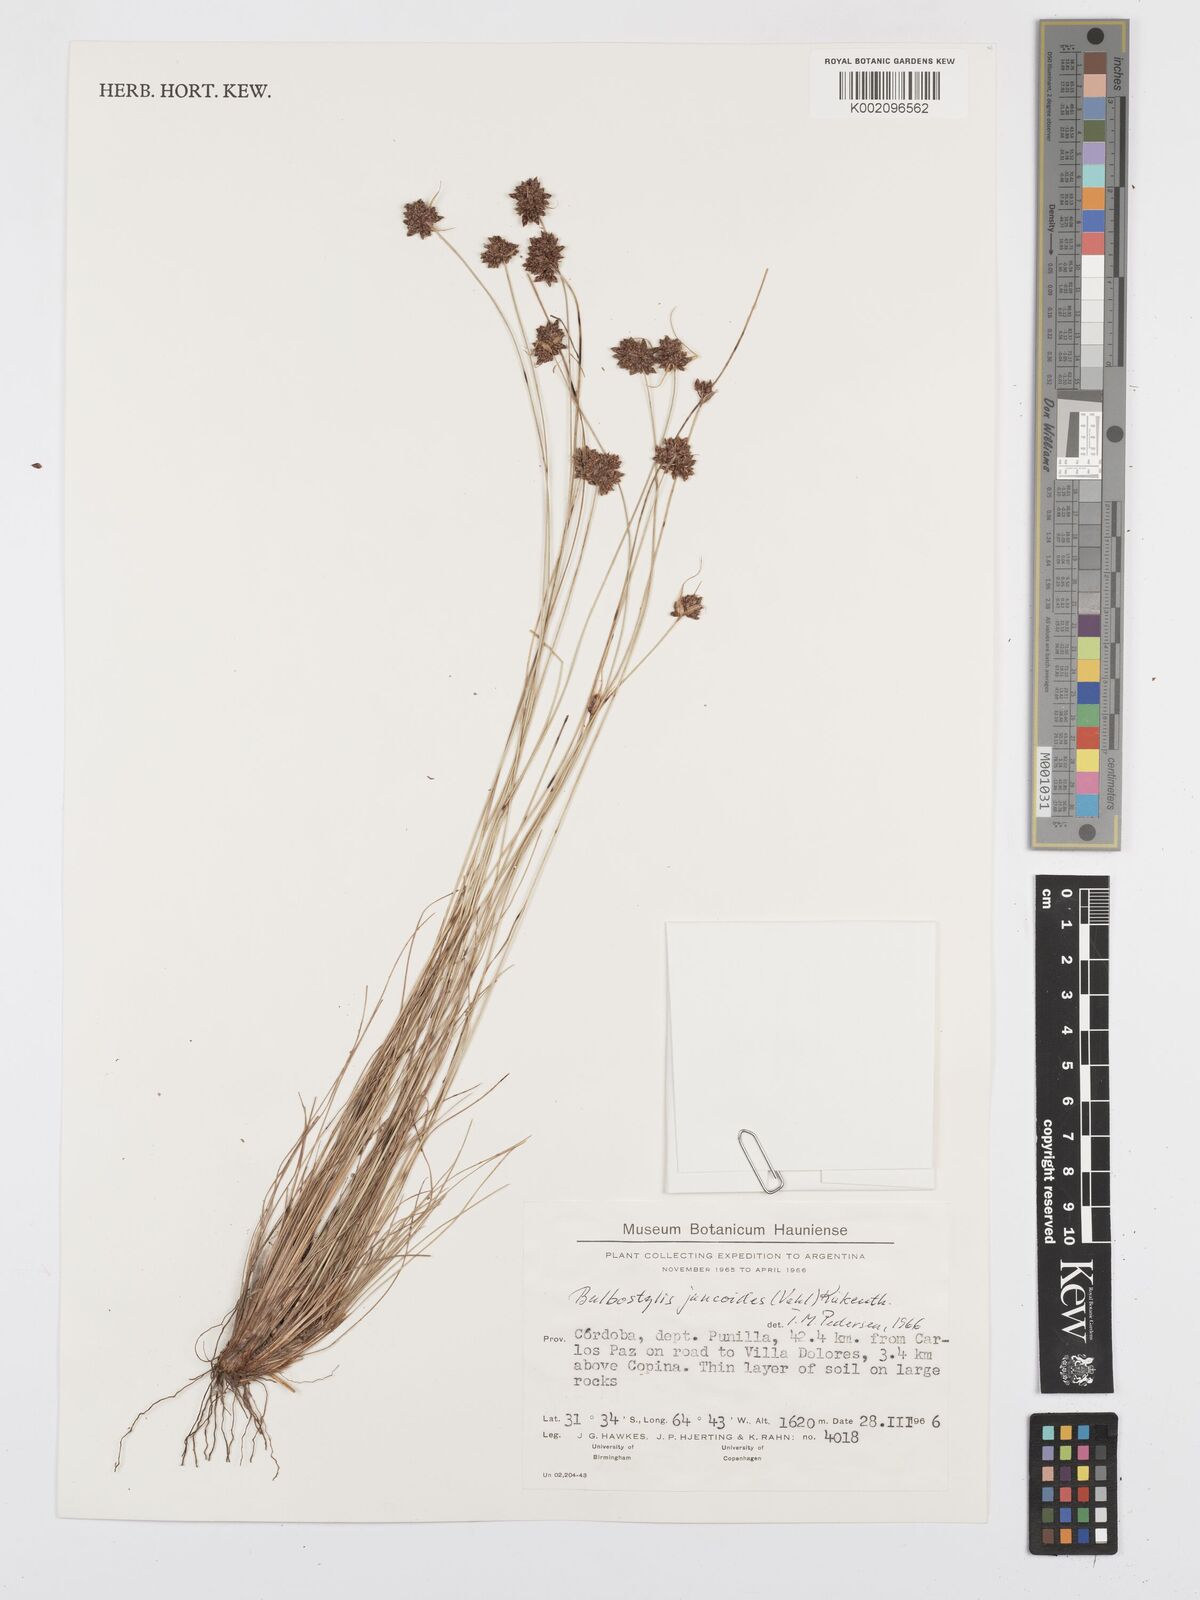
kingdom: Plantae
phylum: Tracheophyta
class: Liliopsida
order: Poales
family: Cyperaceae
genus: Bulbostylis
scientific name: Bulbostylis juncoides
